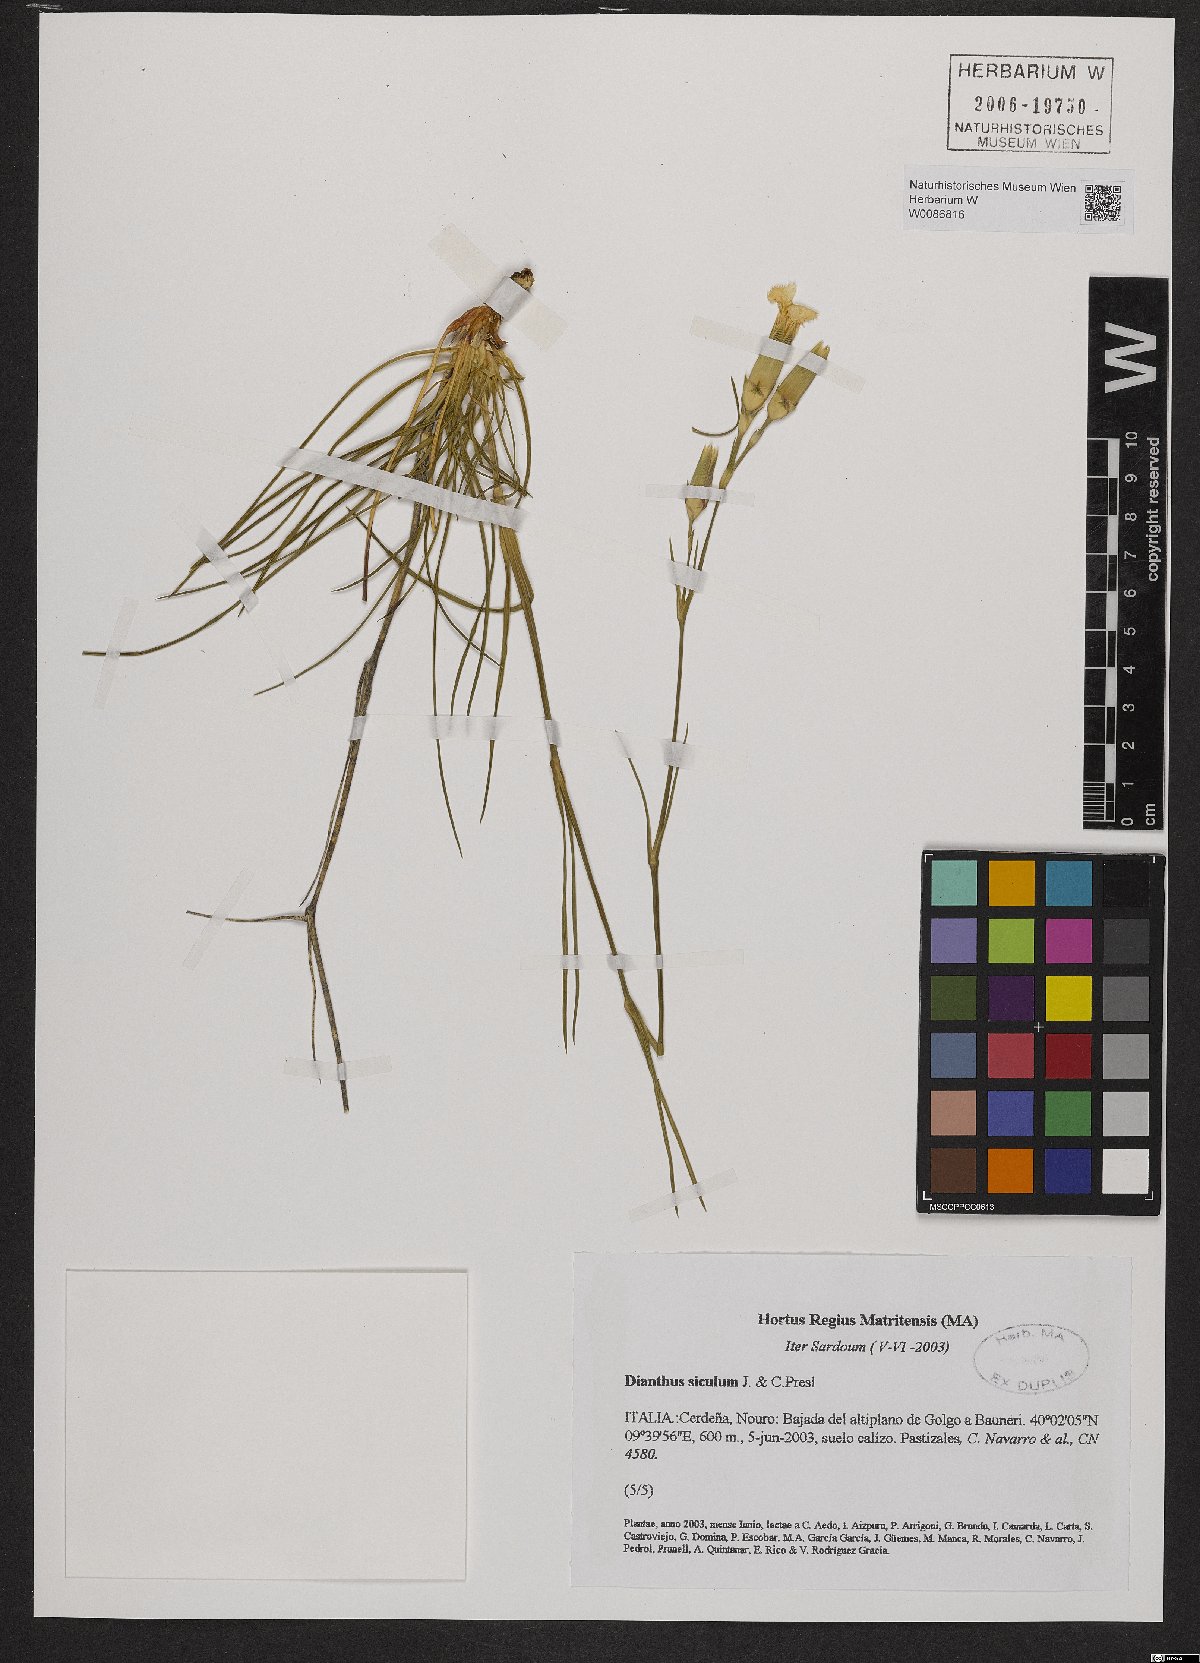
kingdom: Plantae
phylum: Tracheophyta
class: Magnoliopsida
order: Caryophyllales
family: Caryophyllaceae
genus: Dianthus
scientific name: Dianthus siculus
